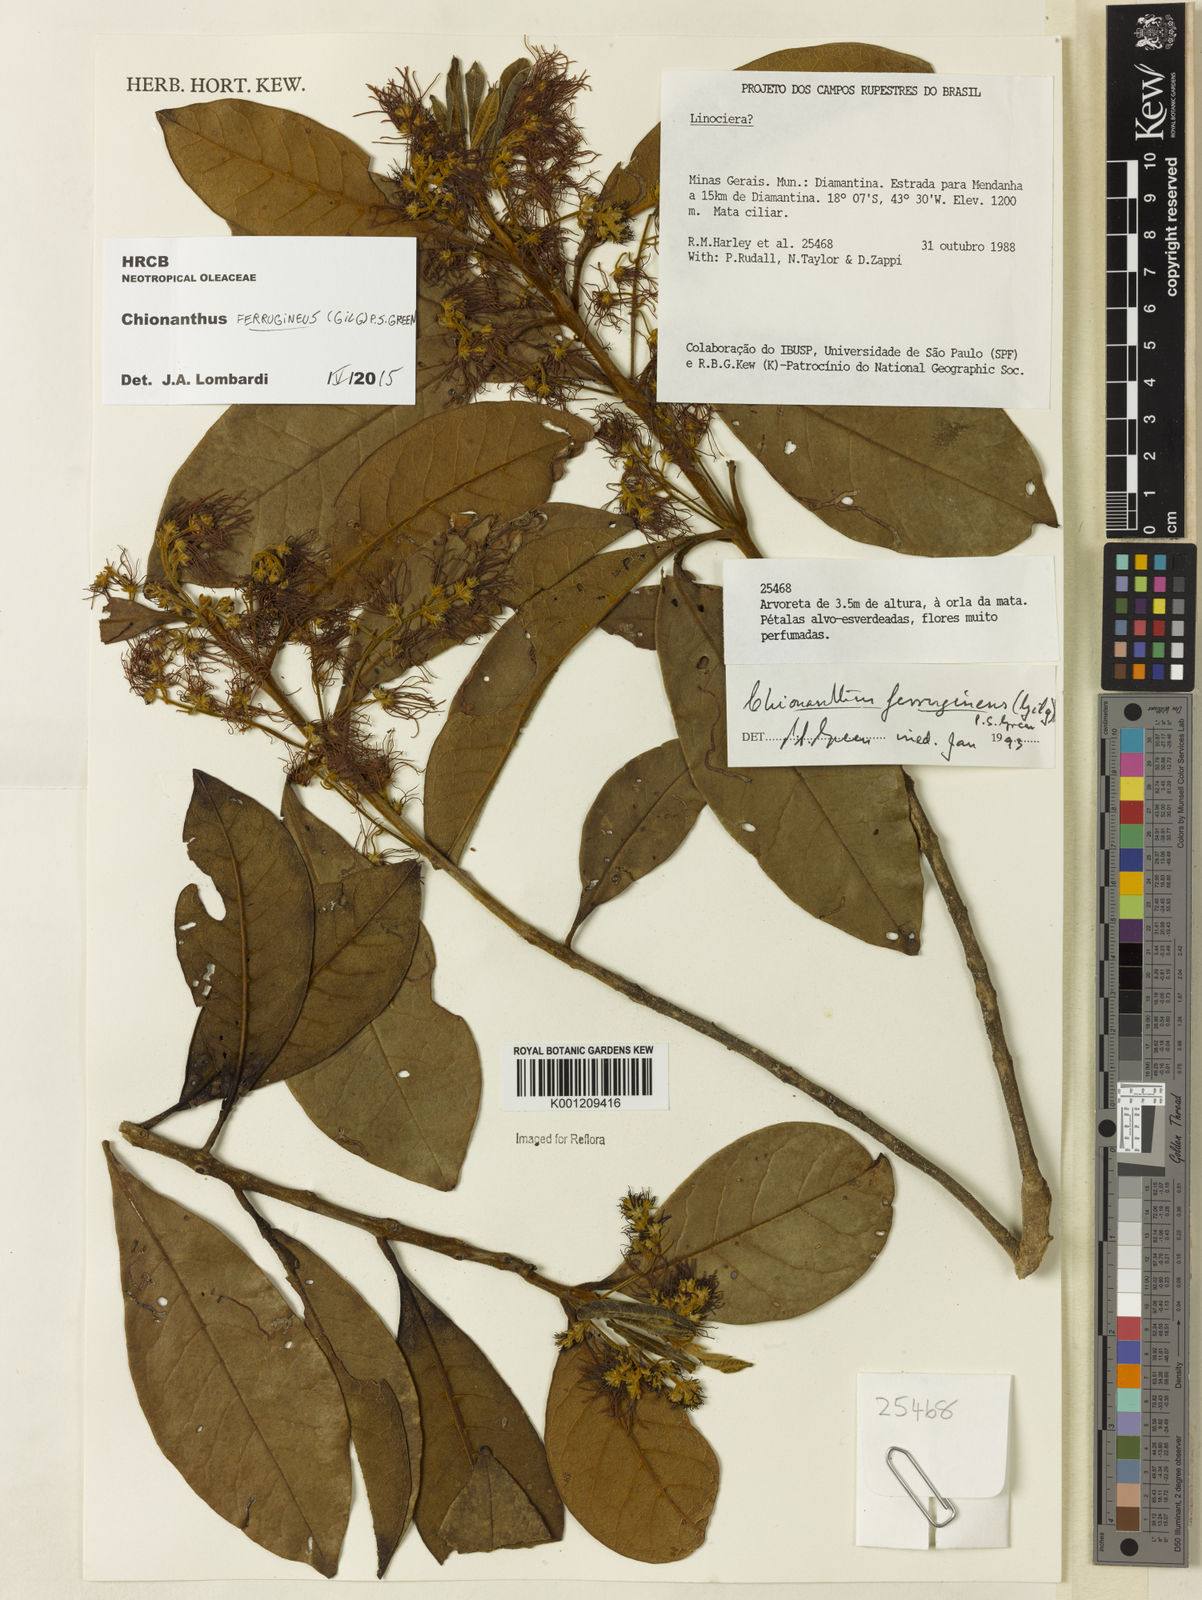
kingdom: Plantae
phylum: Tracheophyta
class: Magnoliopsida
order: Lamiales
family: Oleaceae
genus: Chionanthus
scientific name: Chionanthus ferrugineus
